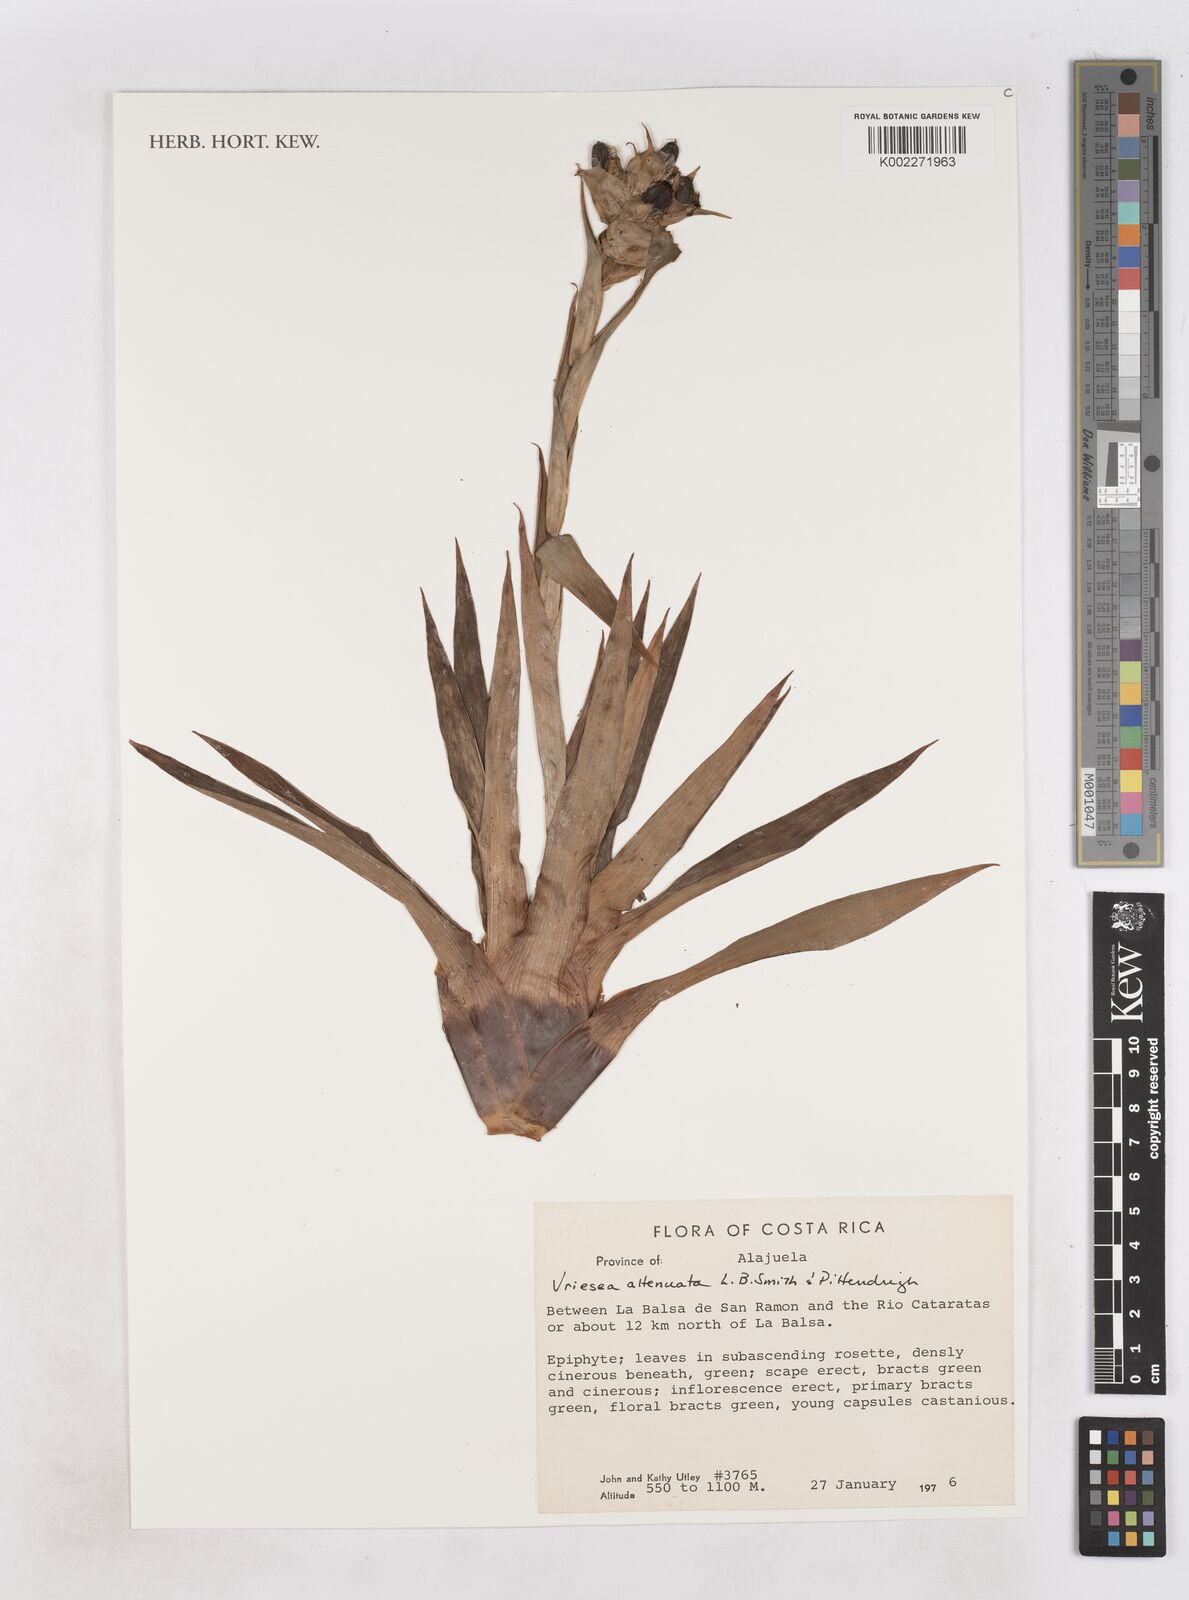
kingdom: Plantae
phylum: Tracheophyta
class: Liliopsida
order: Poales
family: Bromeliaceae
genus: Werauhia
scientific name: Werauhia attenuata
